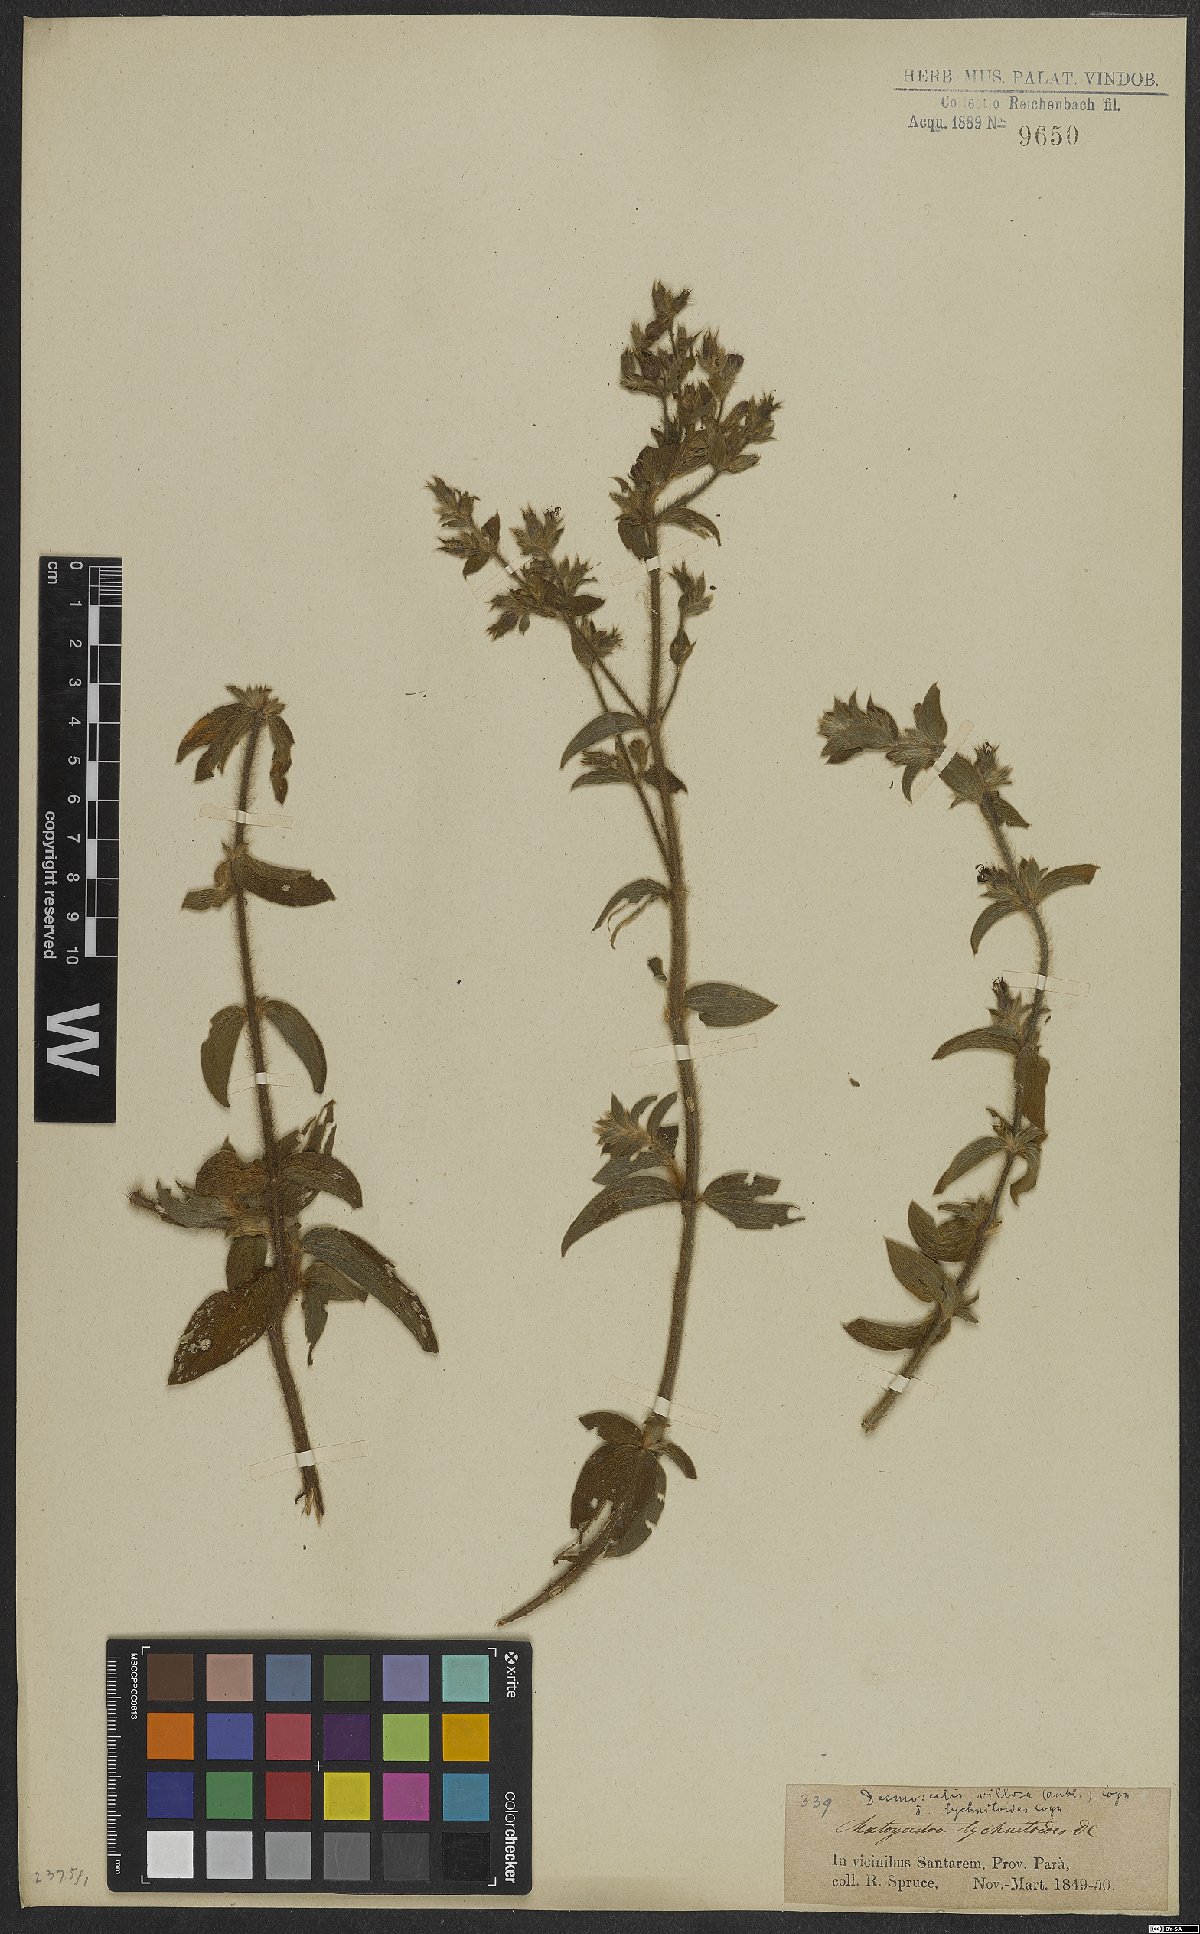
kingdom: Plantae
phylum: Tracheophyta
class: Magnoliopsida
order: Myrtales
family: Melastomataceae
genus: Desmoscelis
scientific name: Desmoscelis villosa
